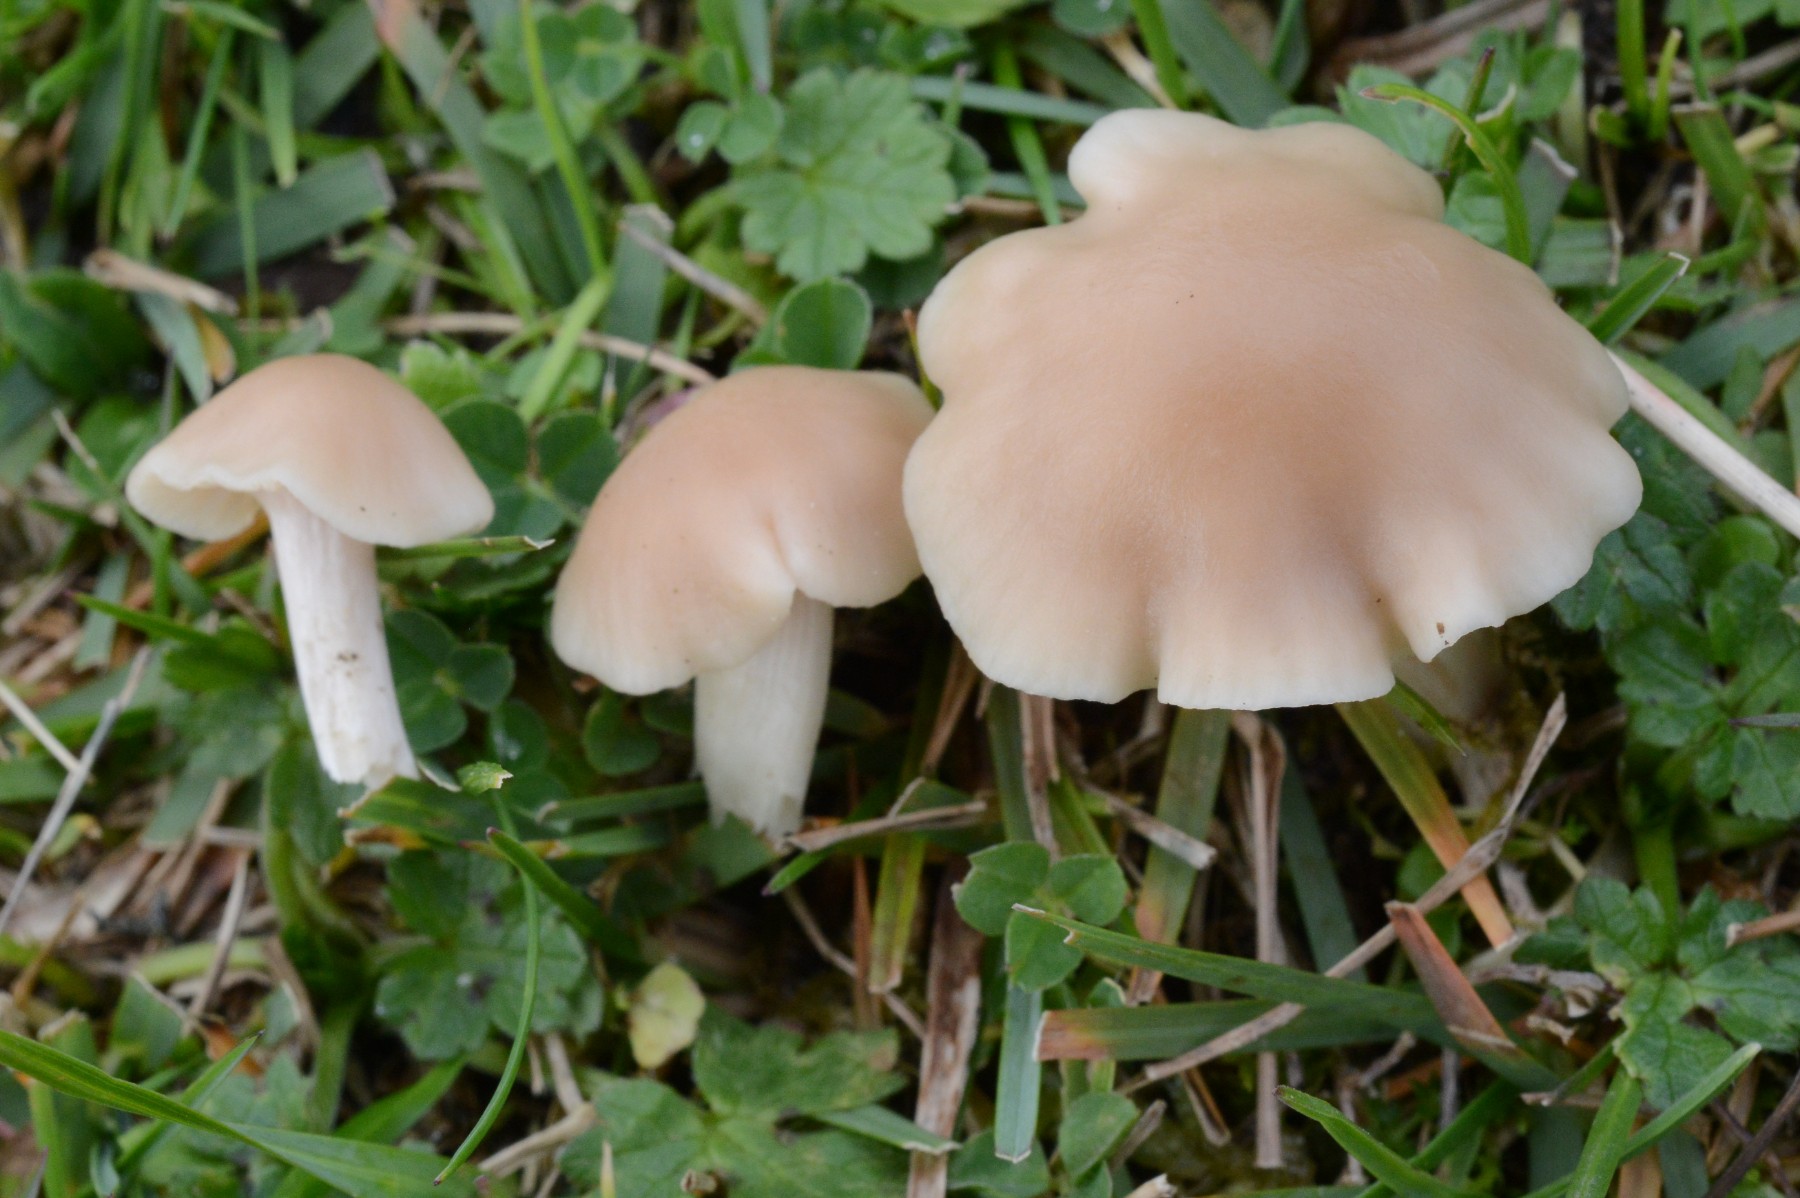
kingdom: Fungi
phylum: Basidiomycota
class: Agaricomycetes
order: Agaricales
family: Hygrophoraceae
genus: Cuphophyllus
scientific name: Cuphophyllus virgineus
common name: isabella-vokshat
